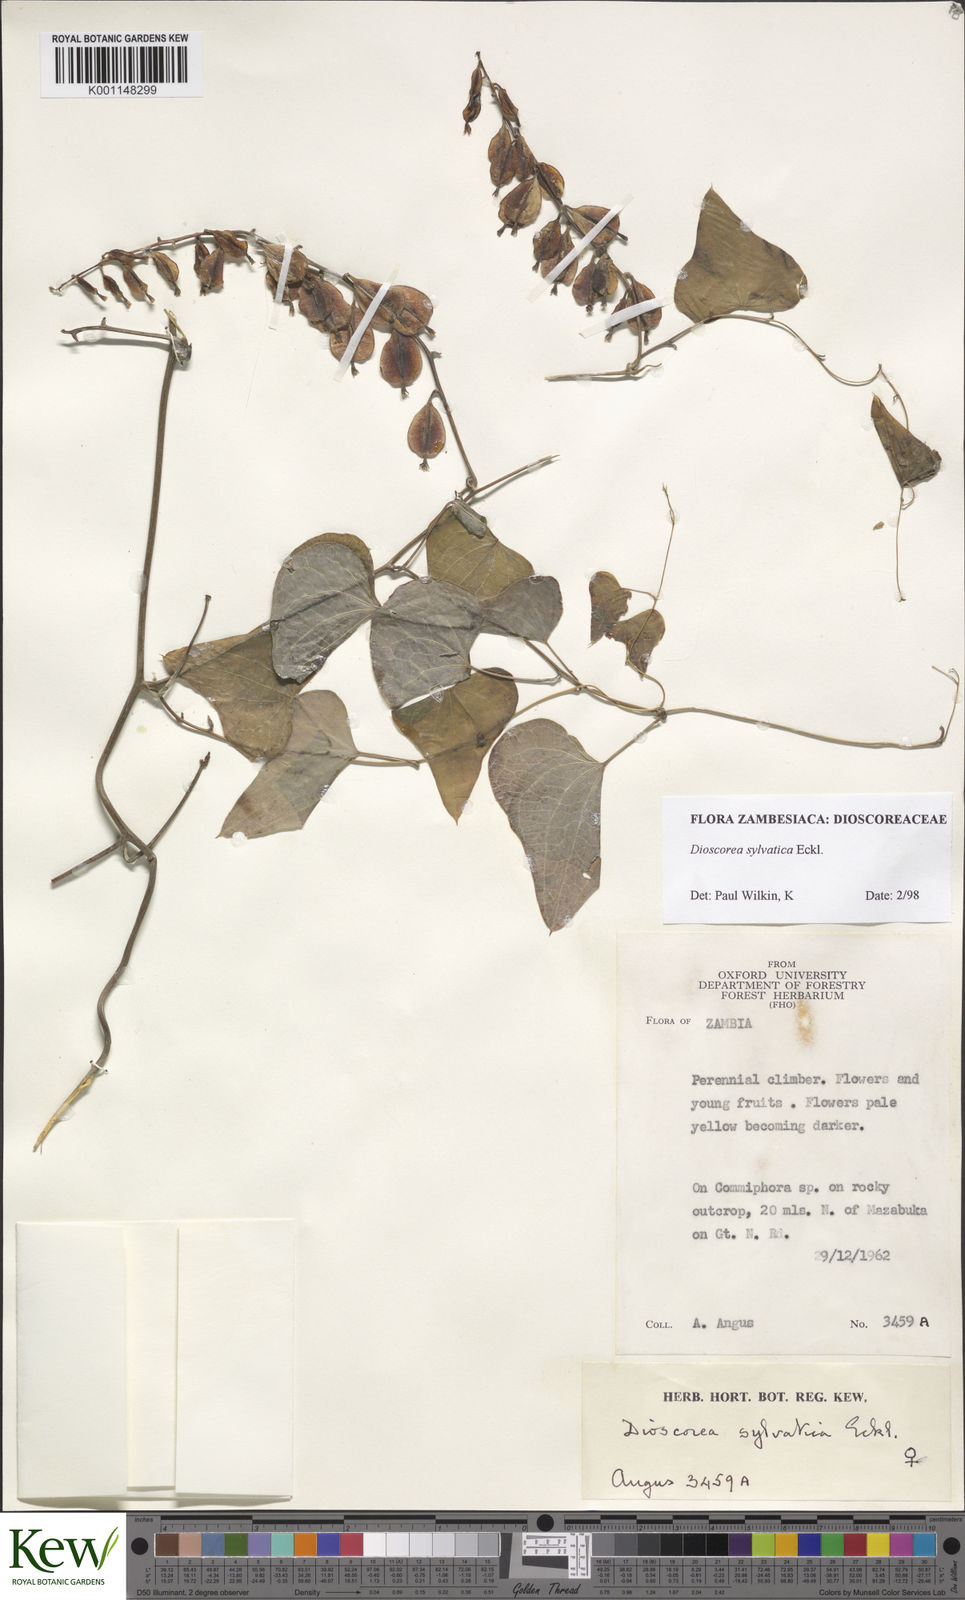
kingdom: Plantae
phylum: Tracheophyta
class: Liliopsida
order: Dioscoreales
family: Dioscoreaceae
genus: Dioscorea
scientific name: Dioscorea sylvatica
